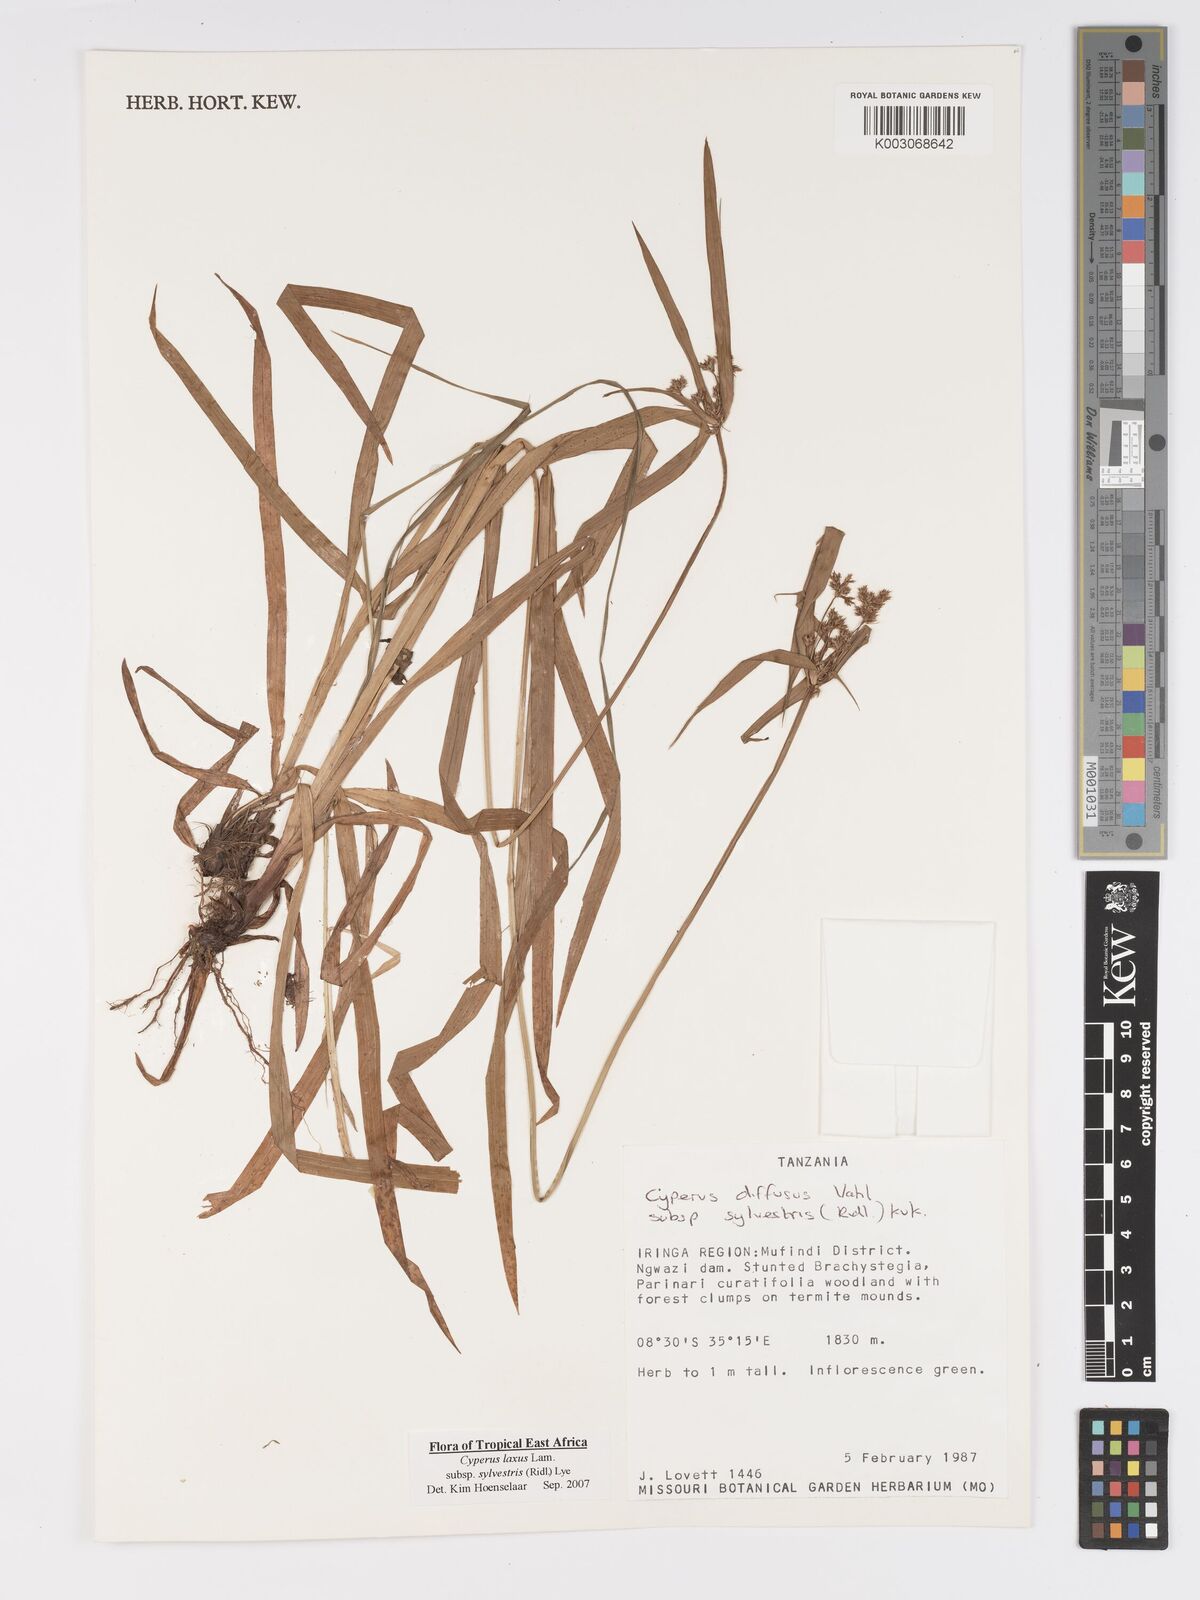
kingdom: Plantae
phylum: Tracheophyta
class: Liliopsida
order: Poales
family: Cyperaceae
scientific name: Cyperaceae
